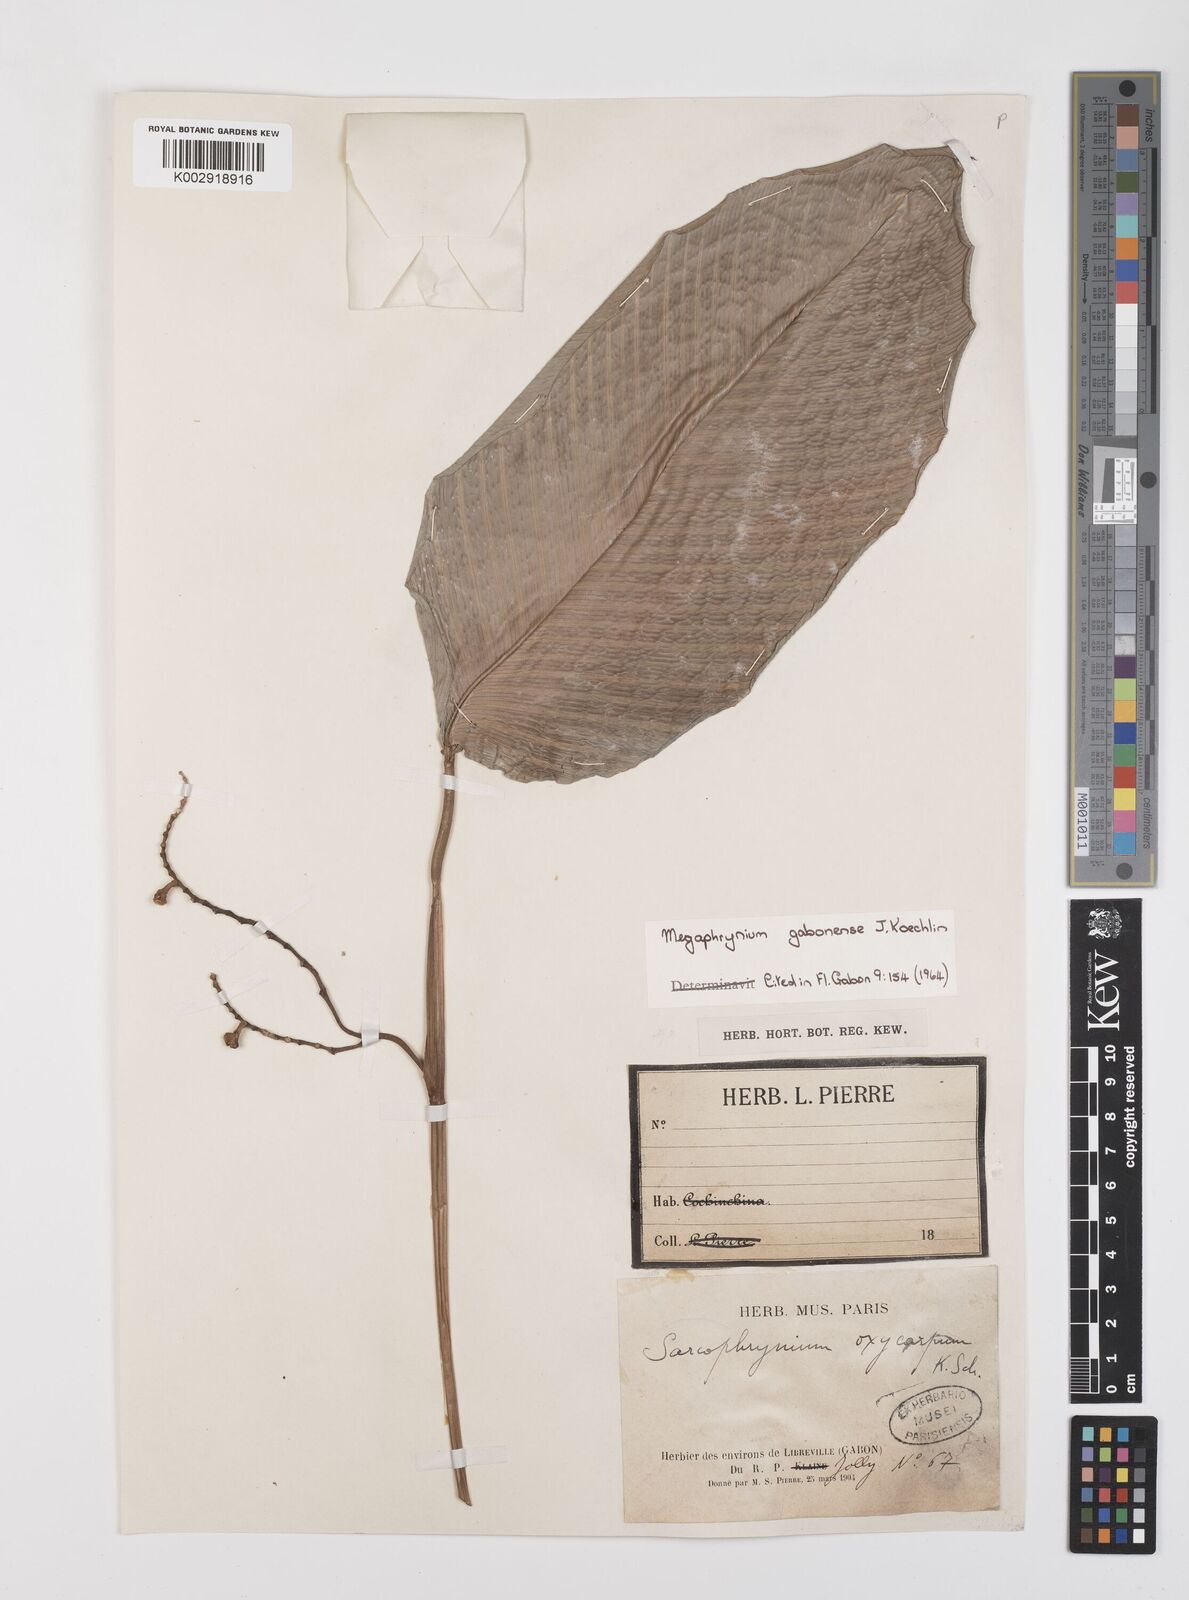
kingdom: Plantae
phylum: Tracheophyta
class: Liliopsida
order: Zingiberales
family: Marantaceae
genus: Megaphrynium
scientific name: Megaphrynium gabonense
